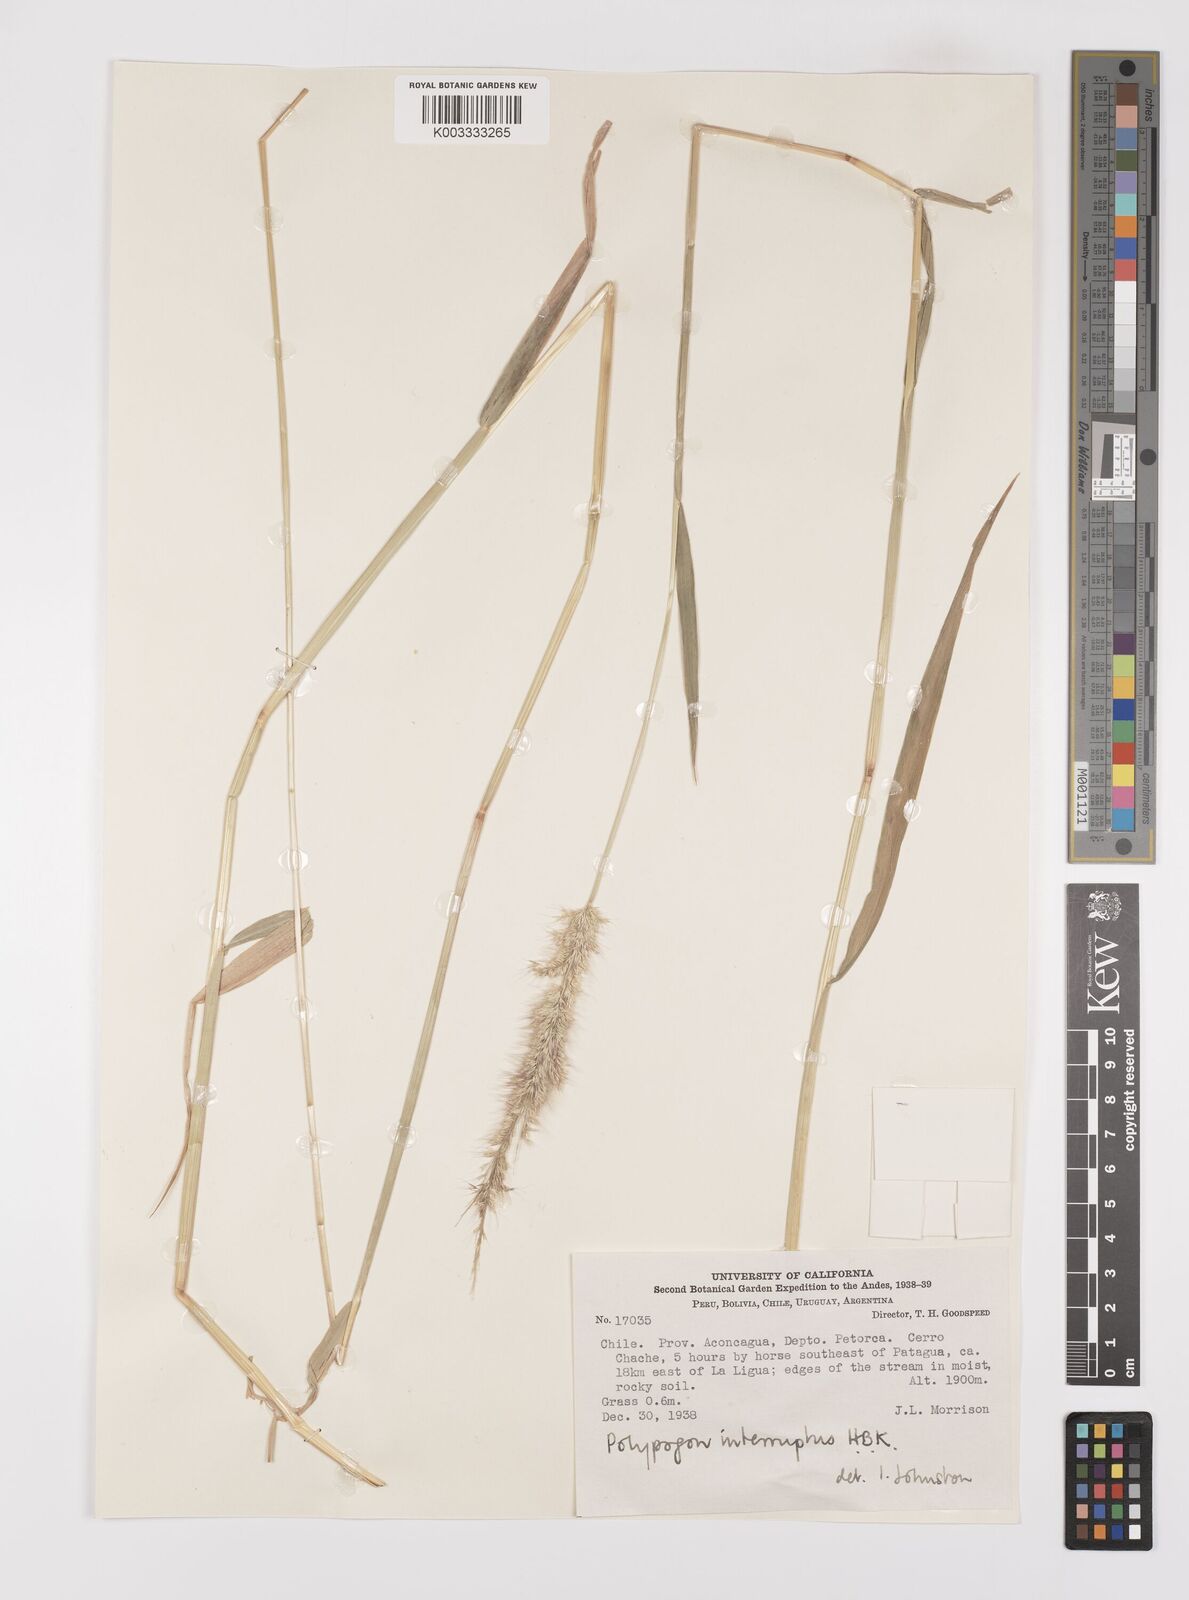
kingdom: Plantae
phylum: Tracheophyta
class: Liliopsida
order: Poales
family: Poaceae
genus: Polypogon
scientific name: Polypogon interruptus
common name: Ditch polypogon
